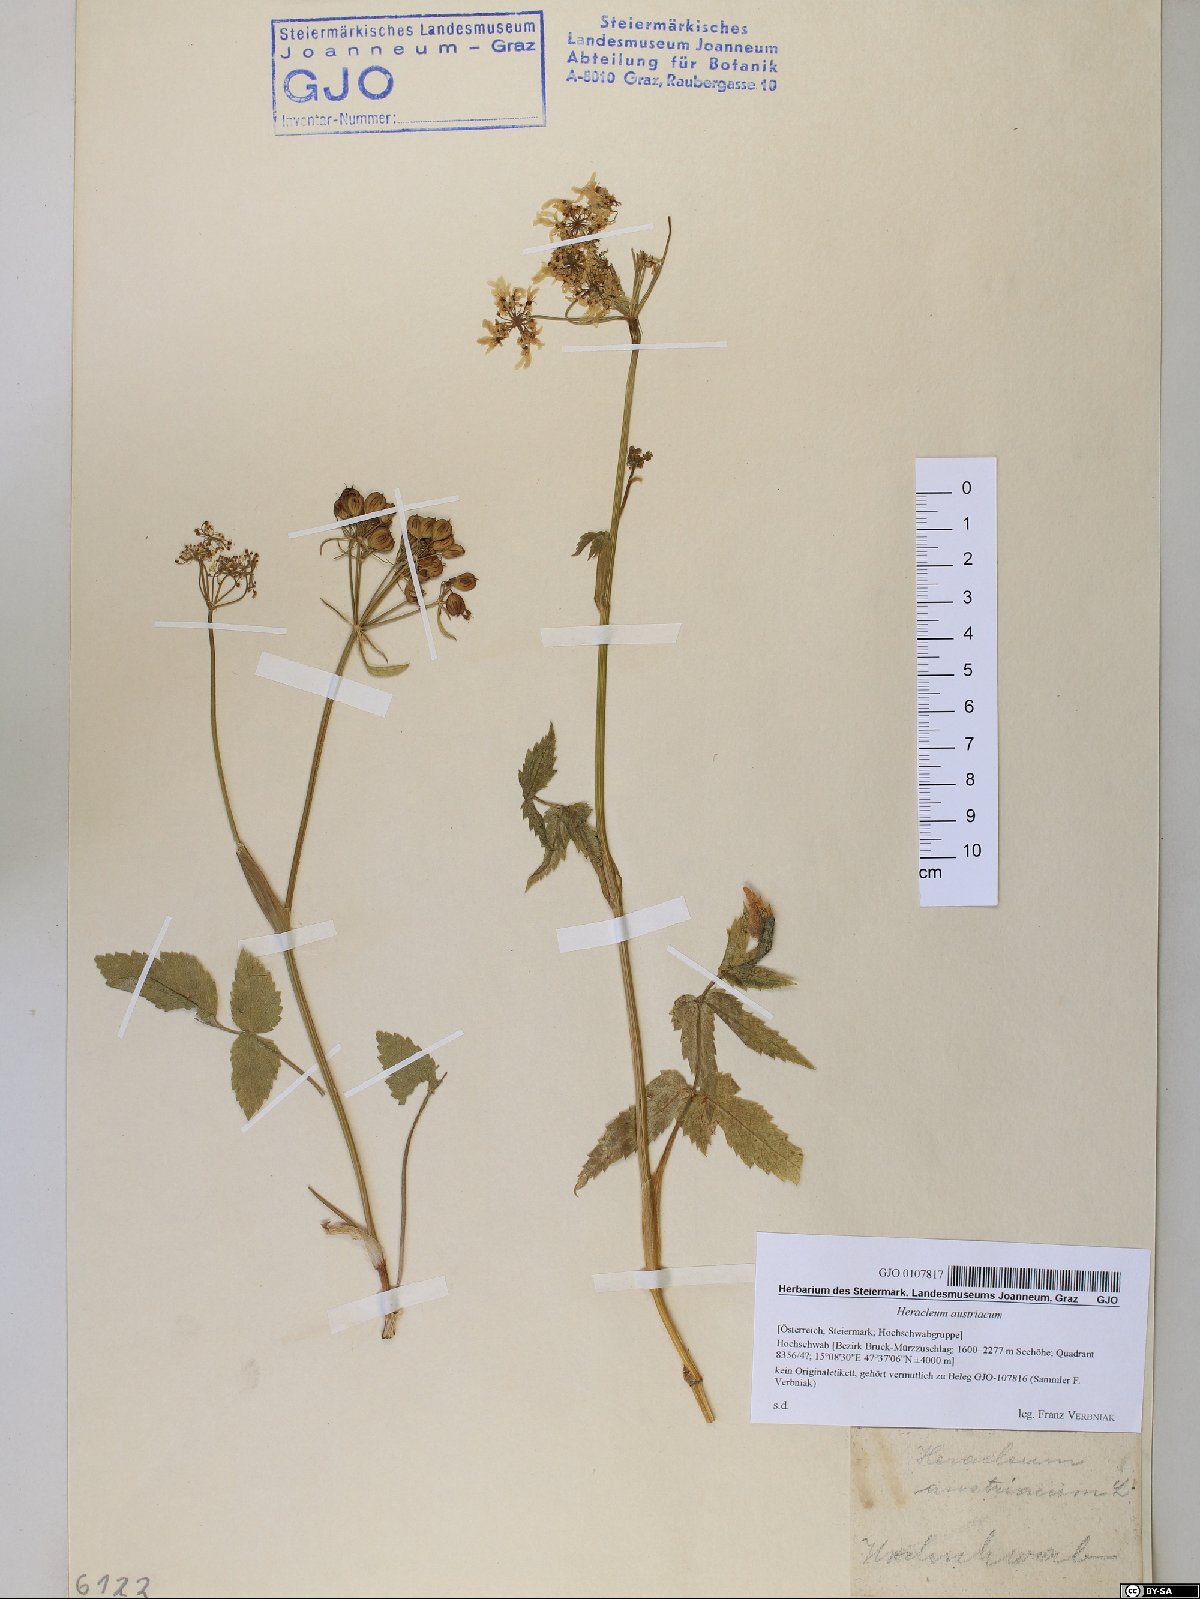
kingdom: Plantae
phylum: Tracheophyta
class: Magnoliopsida
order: Apiales
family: Apiaceae
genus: Heracleum
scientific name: Heracleum austriacum
